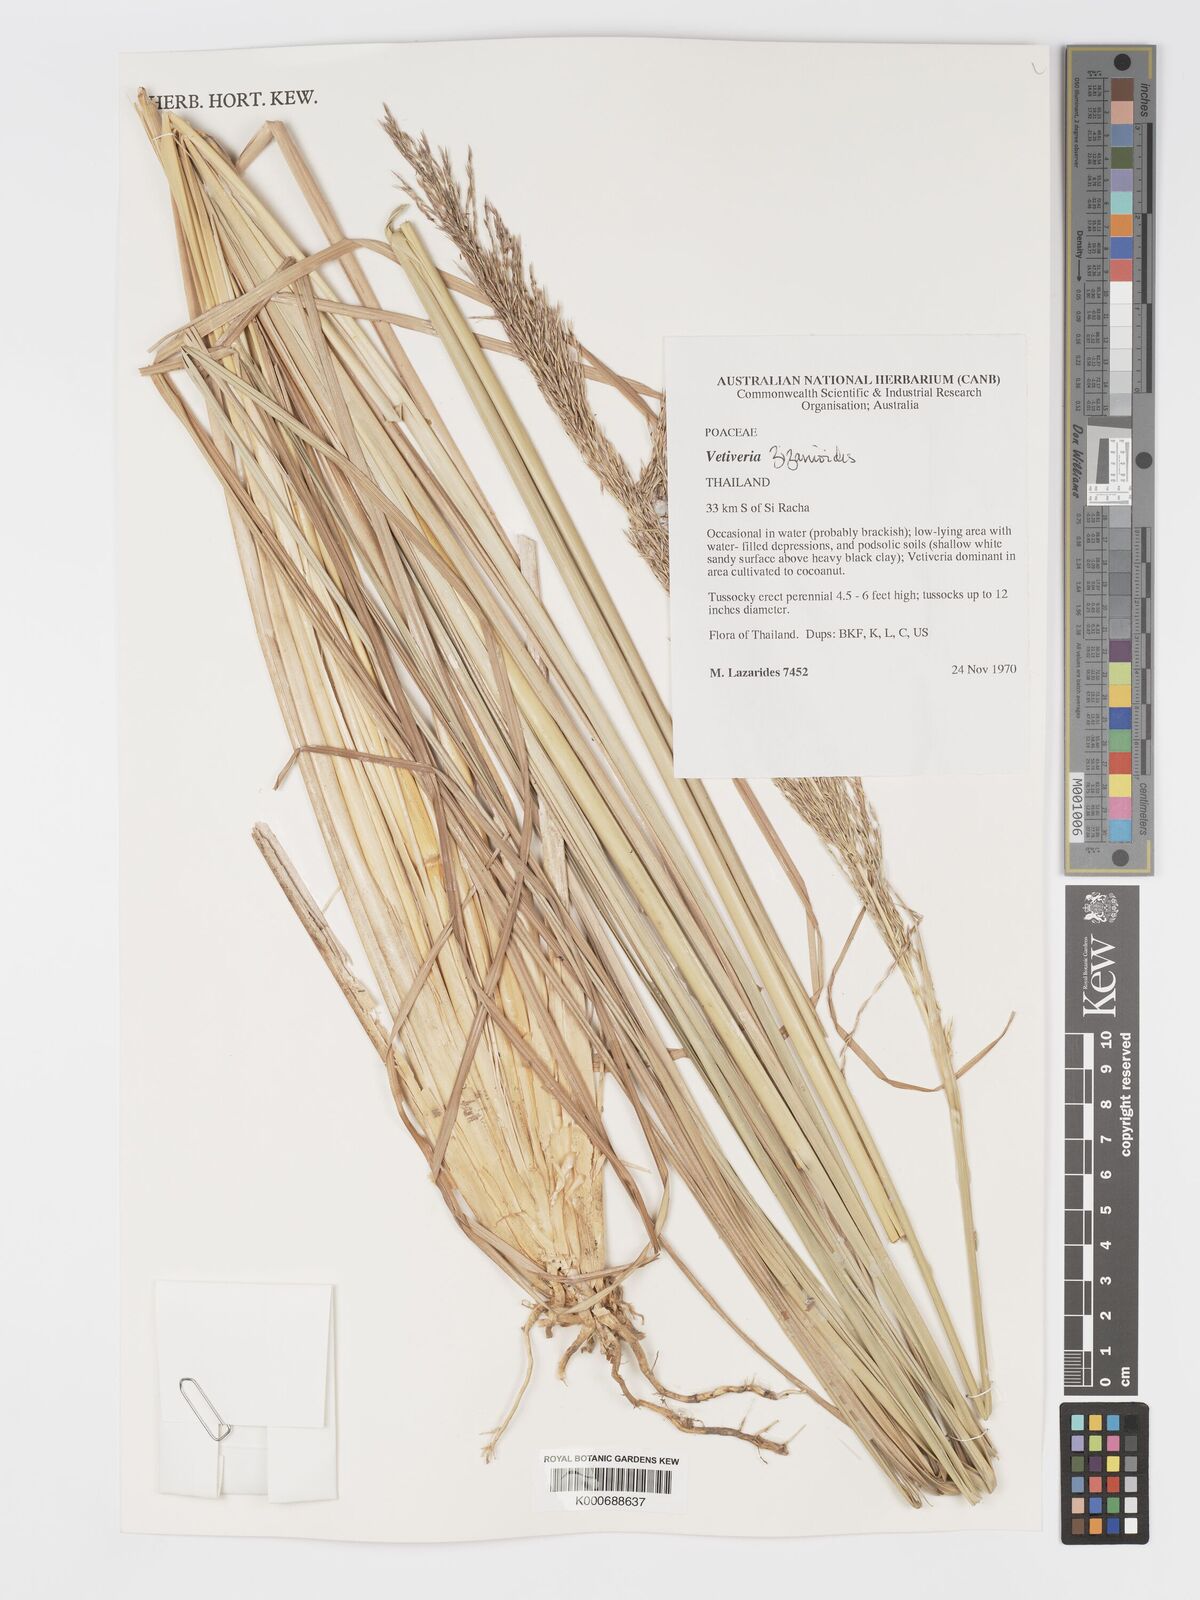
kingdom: Plantae
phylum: Tracheophyta
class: Liliopsida
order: Poales
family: Poaceae
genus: Chrysopogon
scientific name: Chrysopogon zizanioides
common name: False beardgrass
